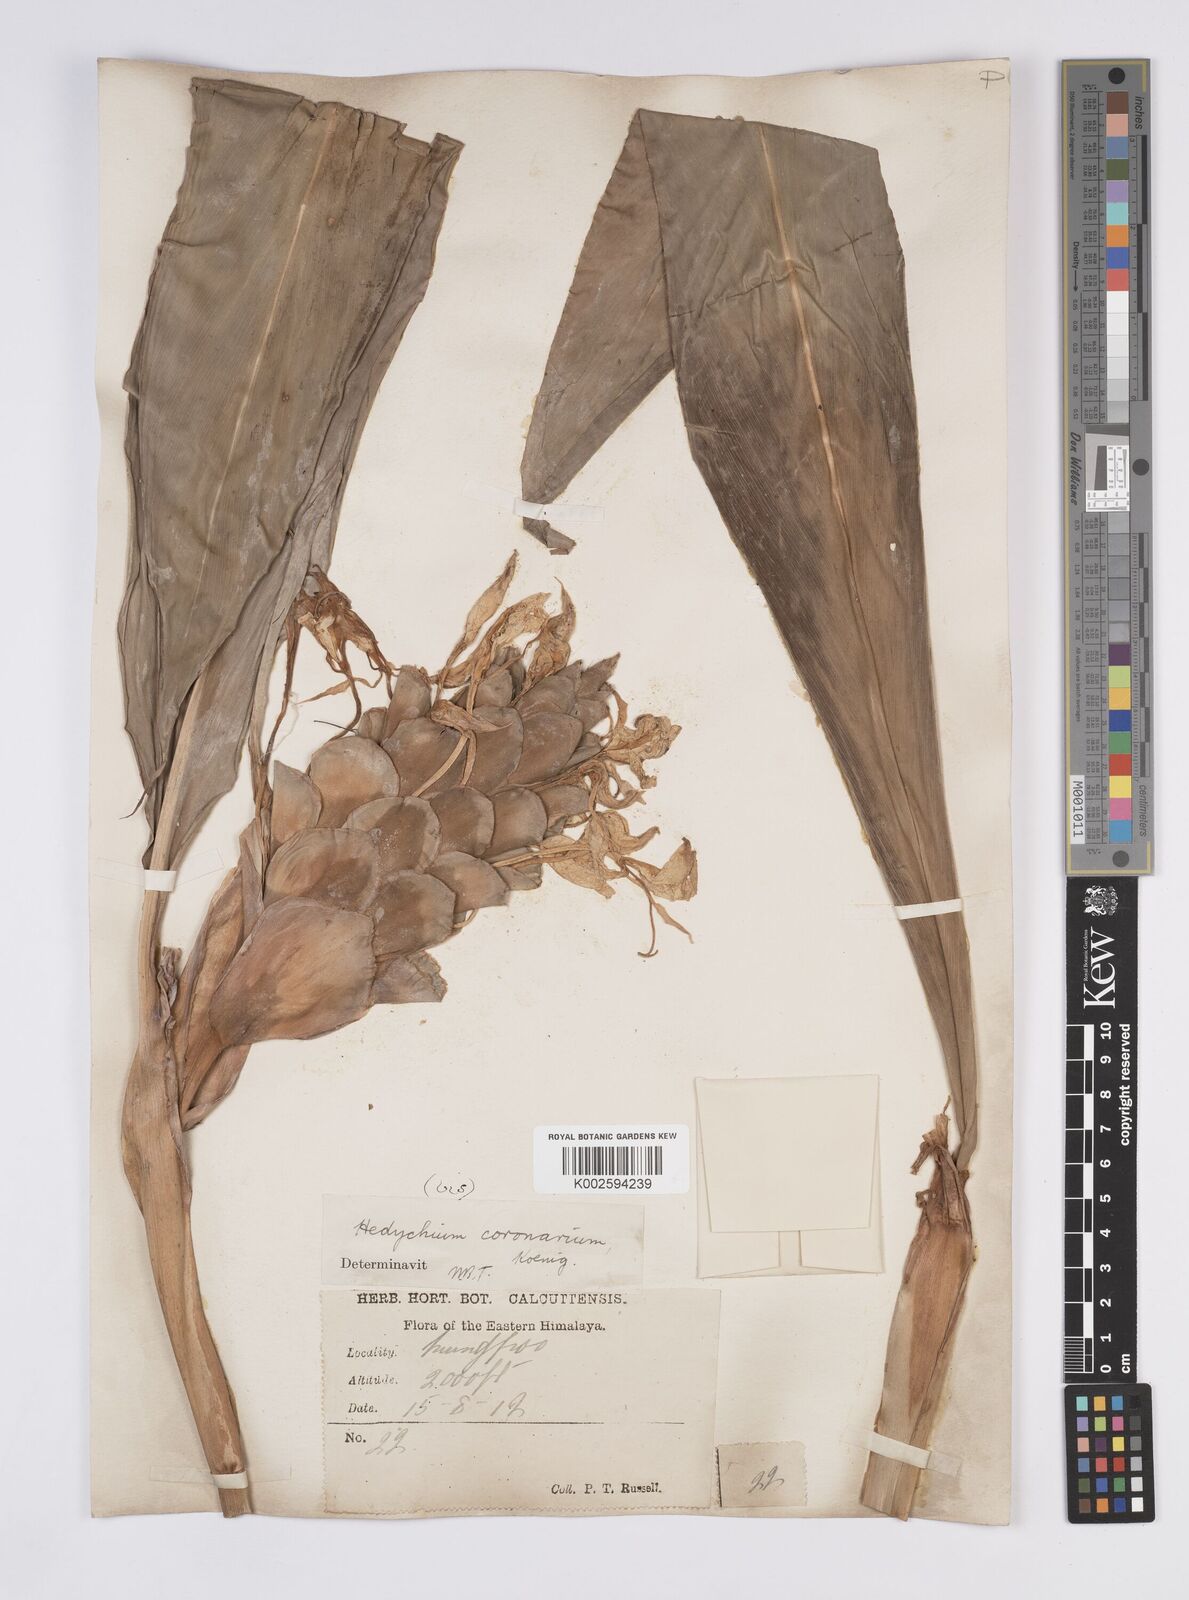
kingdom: Plantae
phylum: Tracheophyta
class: Liliopsida
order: Zingiberales
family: Zingiberaceae
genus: Hedychium
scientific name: Hedychium coronarium
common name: White garland-lily
